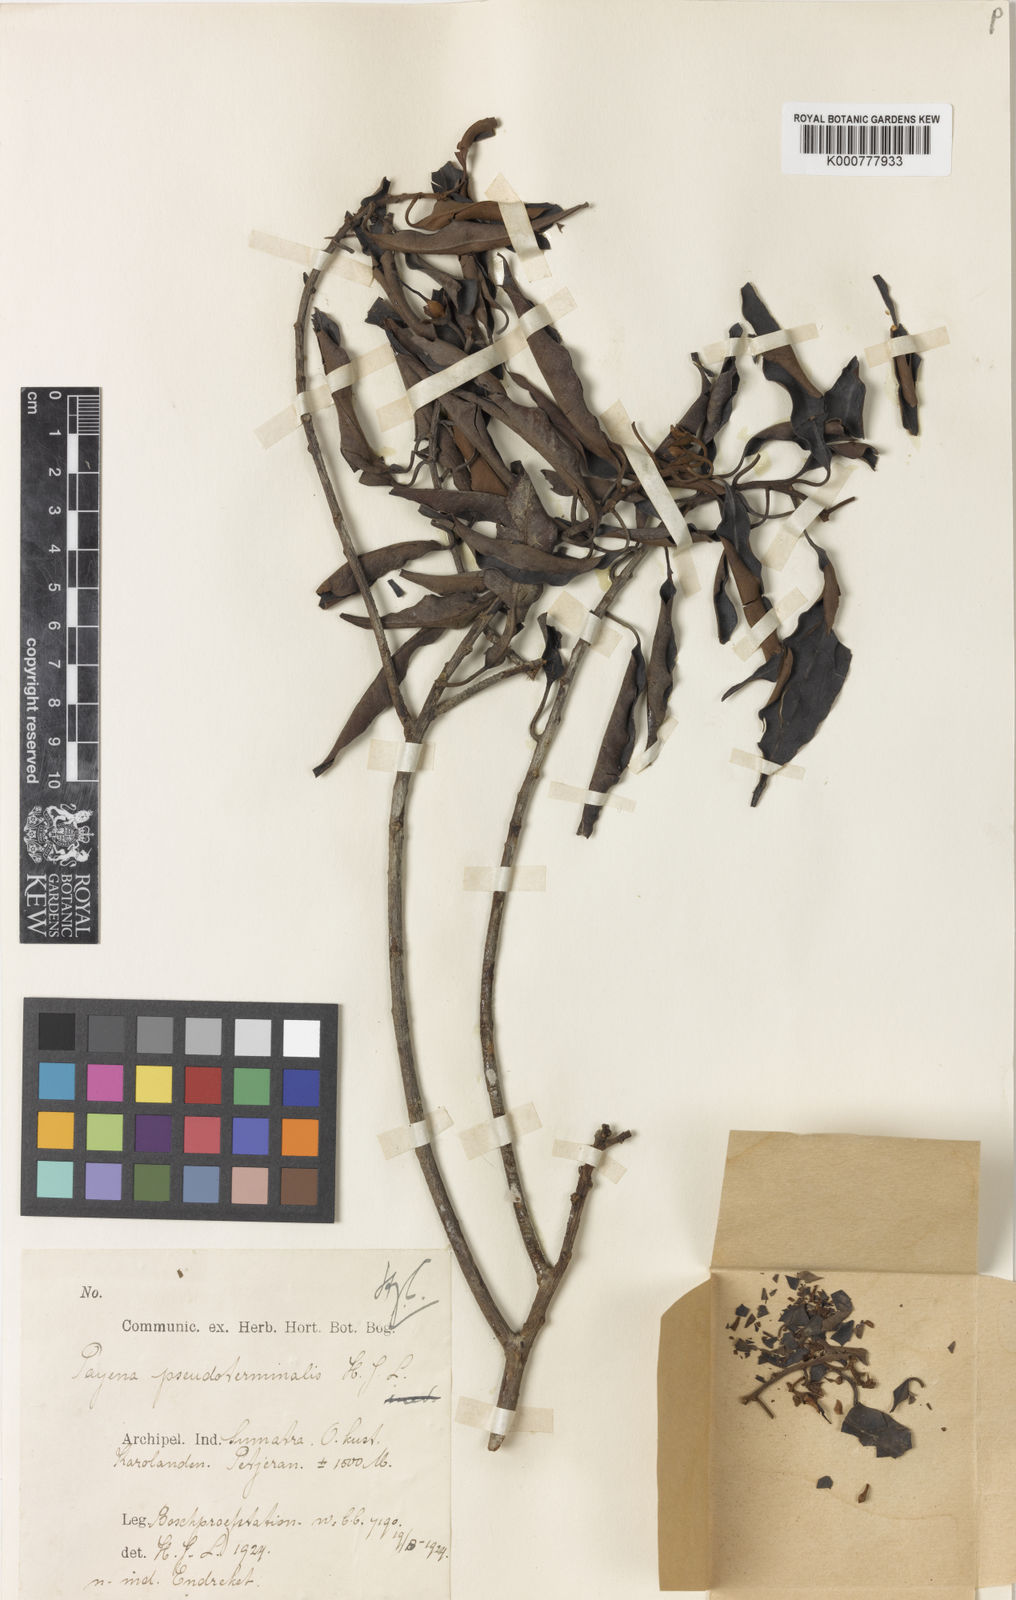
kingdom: Plantae
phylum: Tracheophyta
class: Magnoliopsida
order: Ericales
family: Sapotaceae
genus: Payena
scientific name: Payena pseudoterminalis
